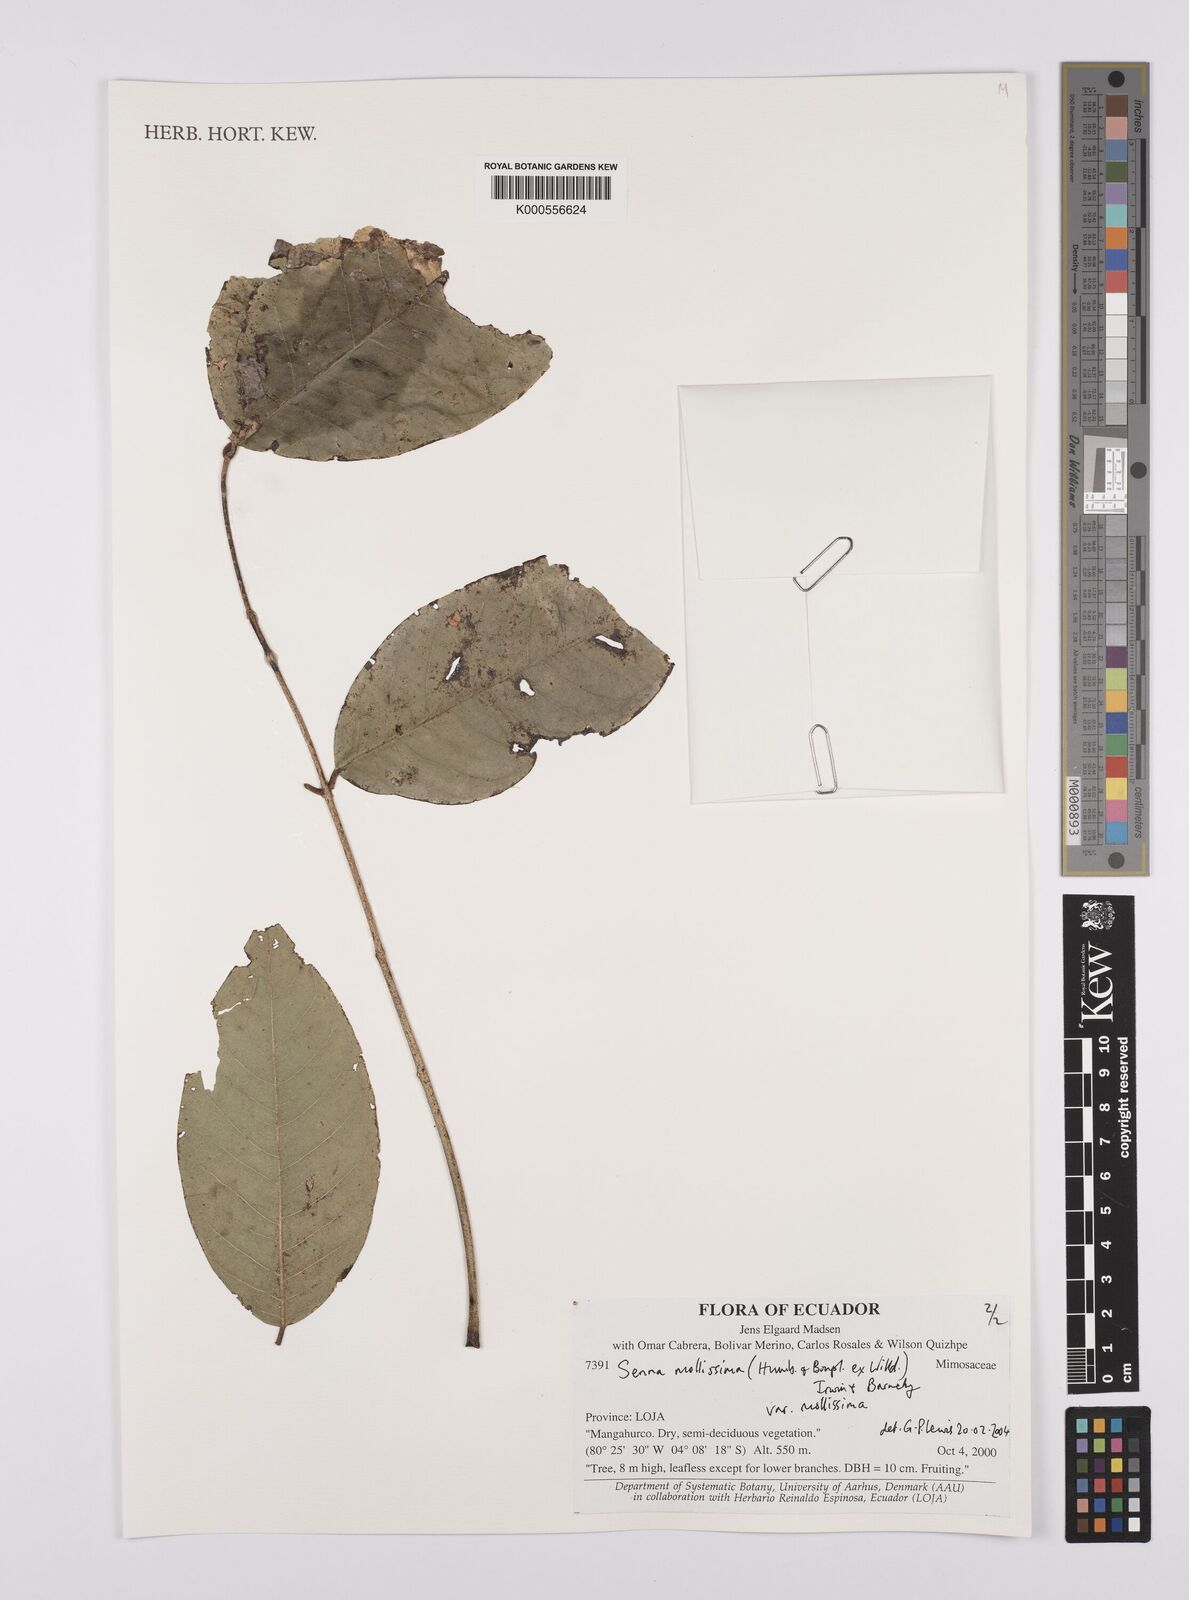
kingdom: Plantae
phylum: Tracheophyta
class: Magnoliopsida
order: Fabales
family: Fabaceae
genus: Senna
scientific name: Senna mollissima
